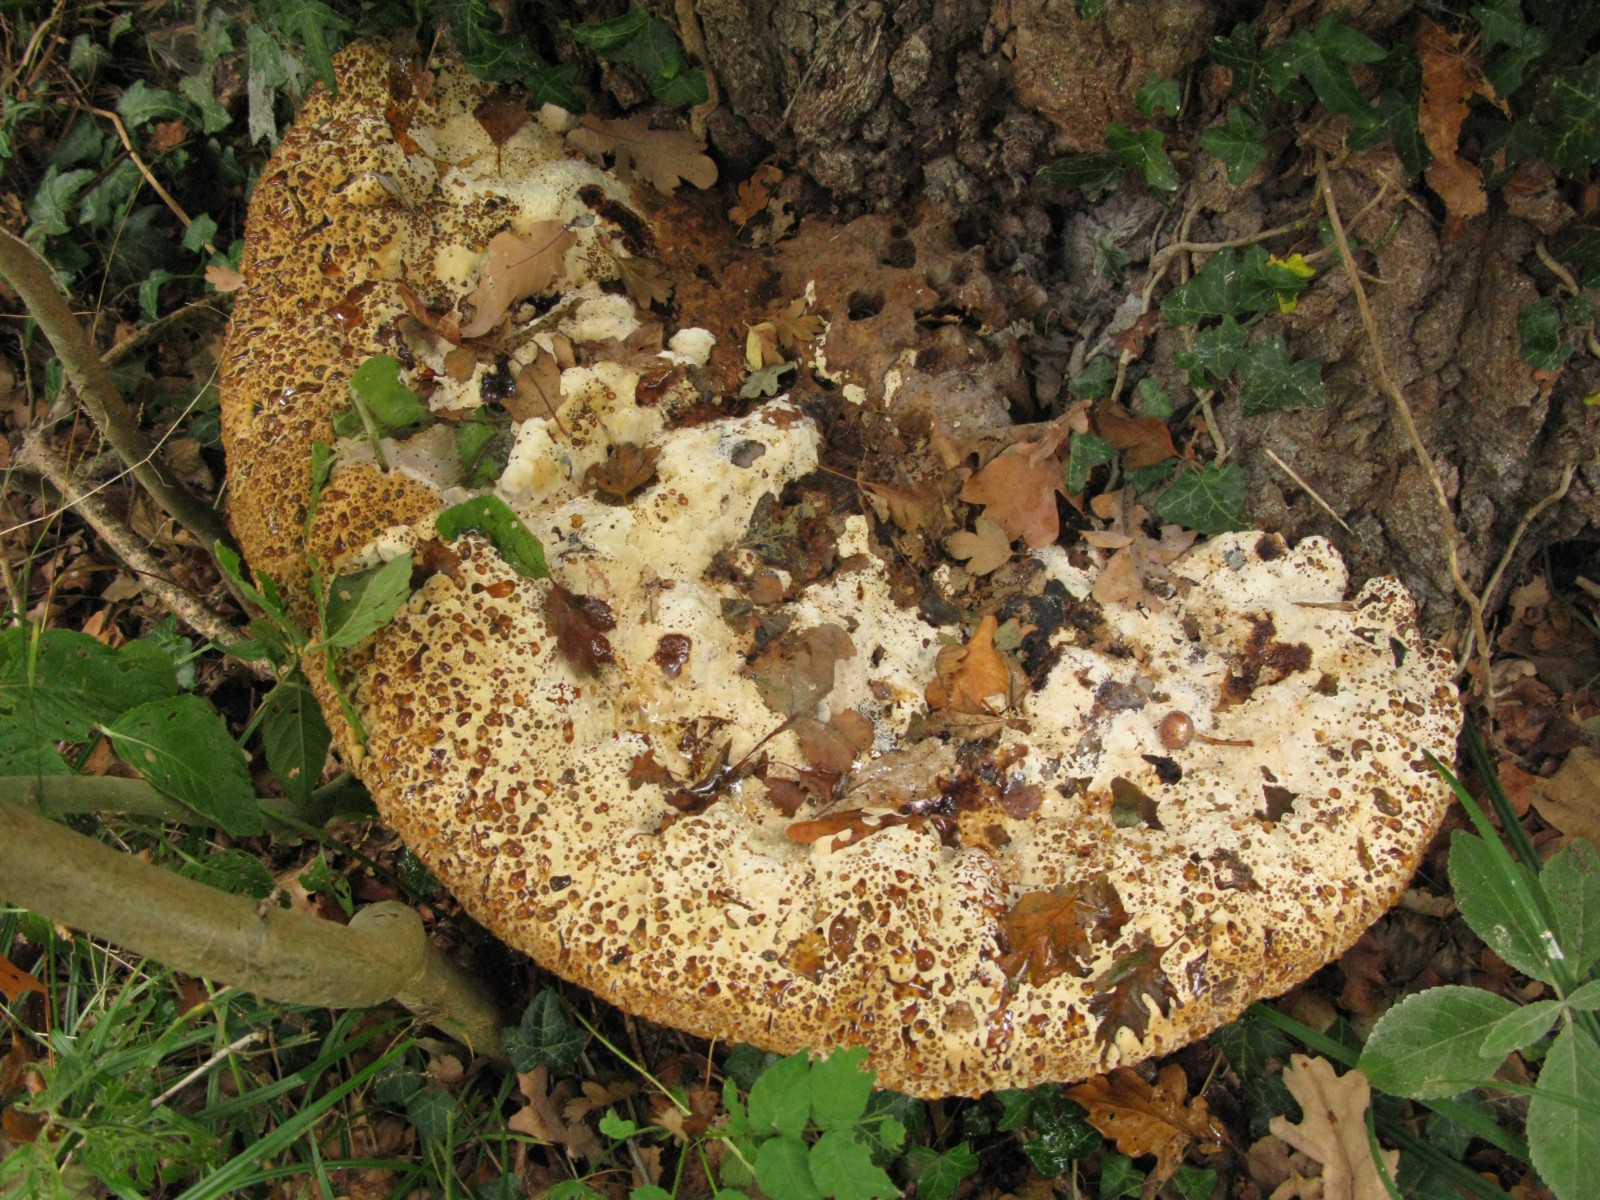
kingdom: Fungi
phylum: Basidiomycota
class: Agaricomycetes
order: Hymenochaetales
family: Hymenochaetaceae
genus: Pseudoinonotus
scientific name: Pseudoinonotus dryadeus
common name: ege-spejlporesvamp
